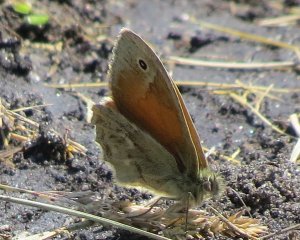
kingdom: Animalia
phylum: Arthropoda
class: Insecta
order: Lepidoptera
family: Nymphalidae
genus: Coenonympha
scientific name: Coenonympha tullia
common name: Large Heath
